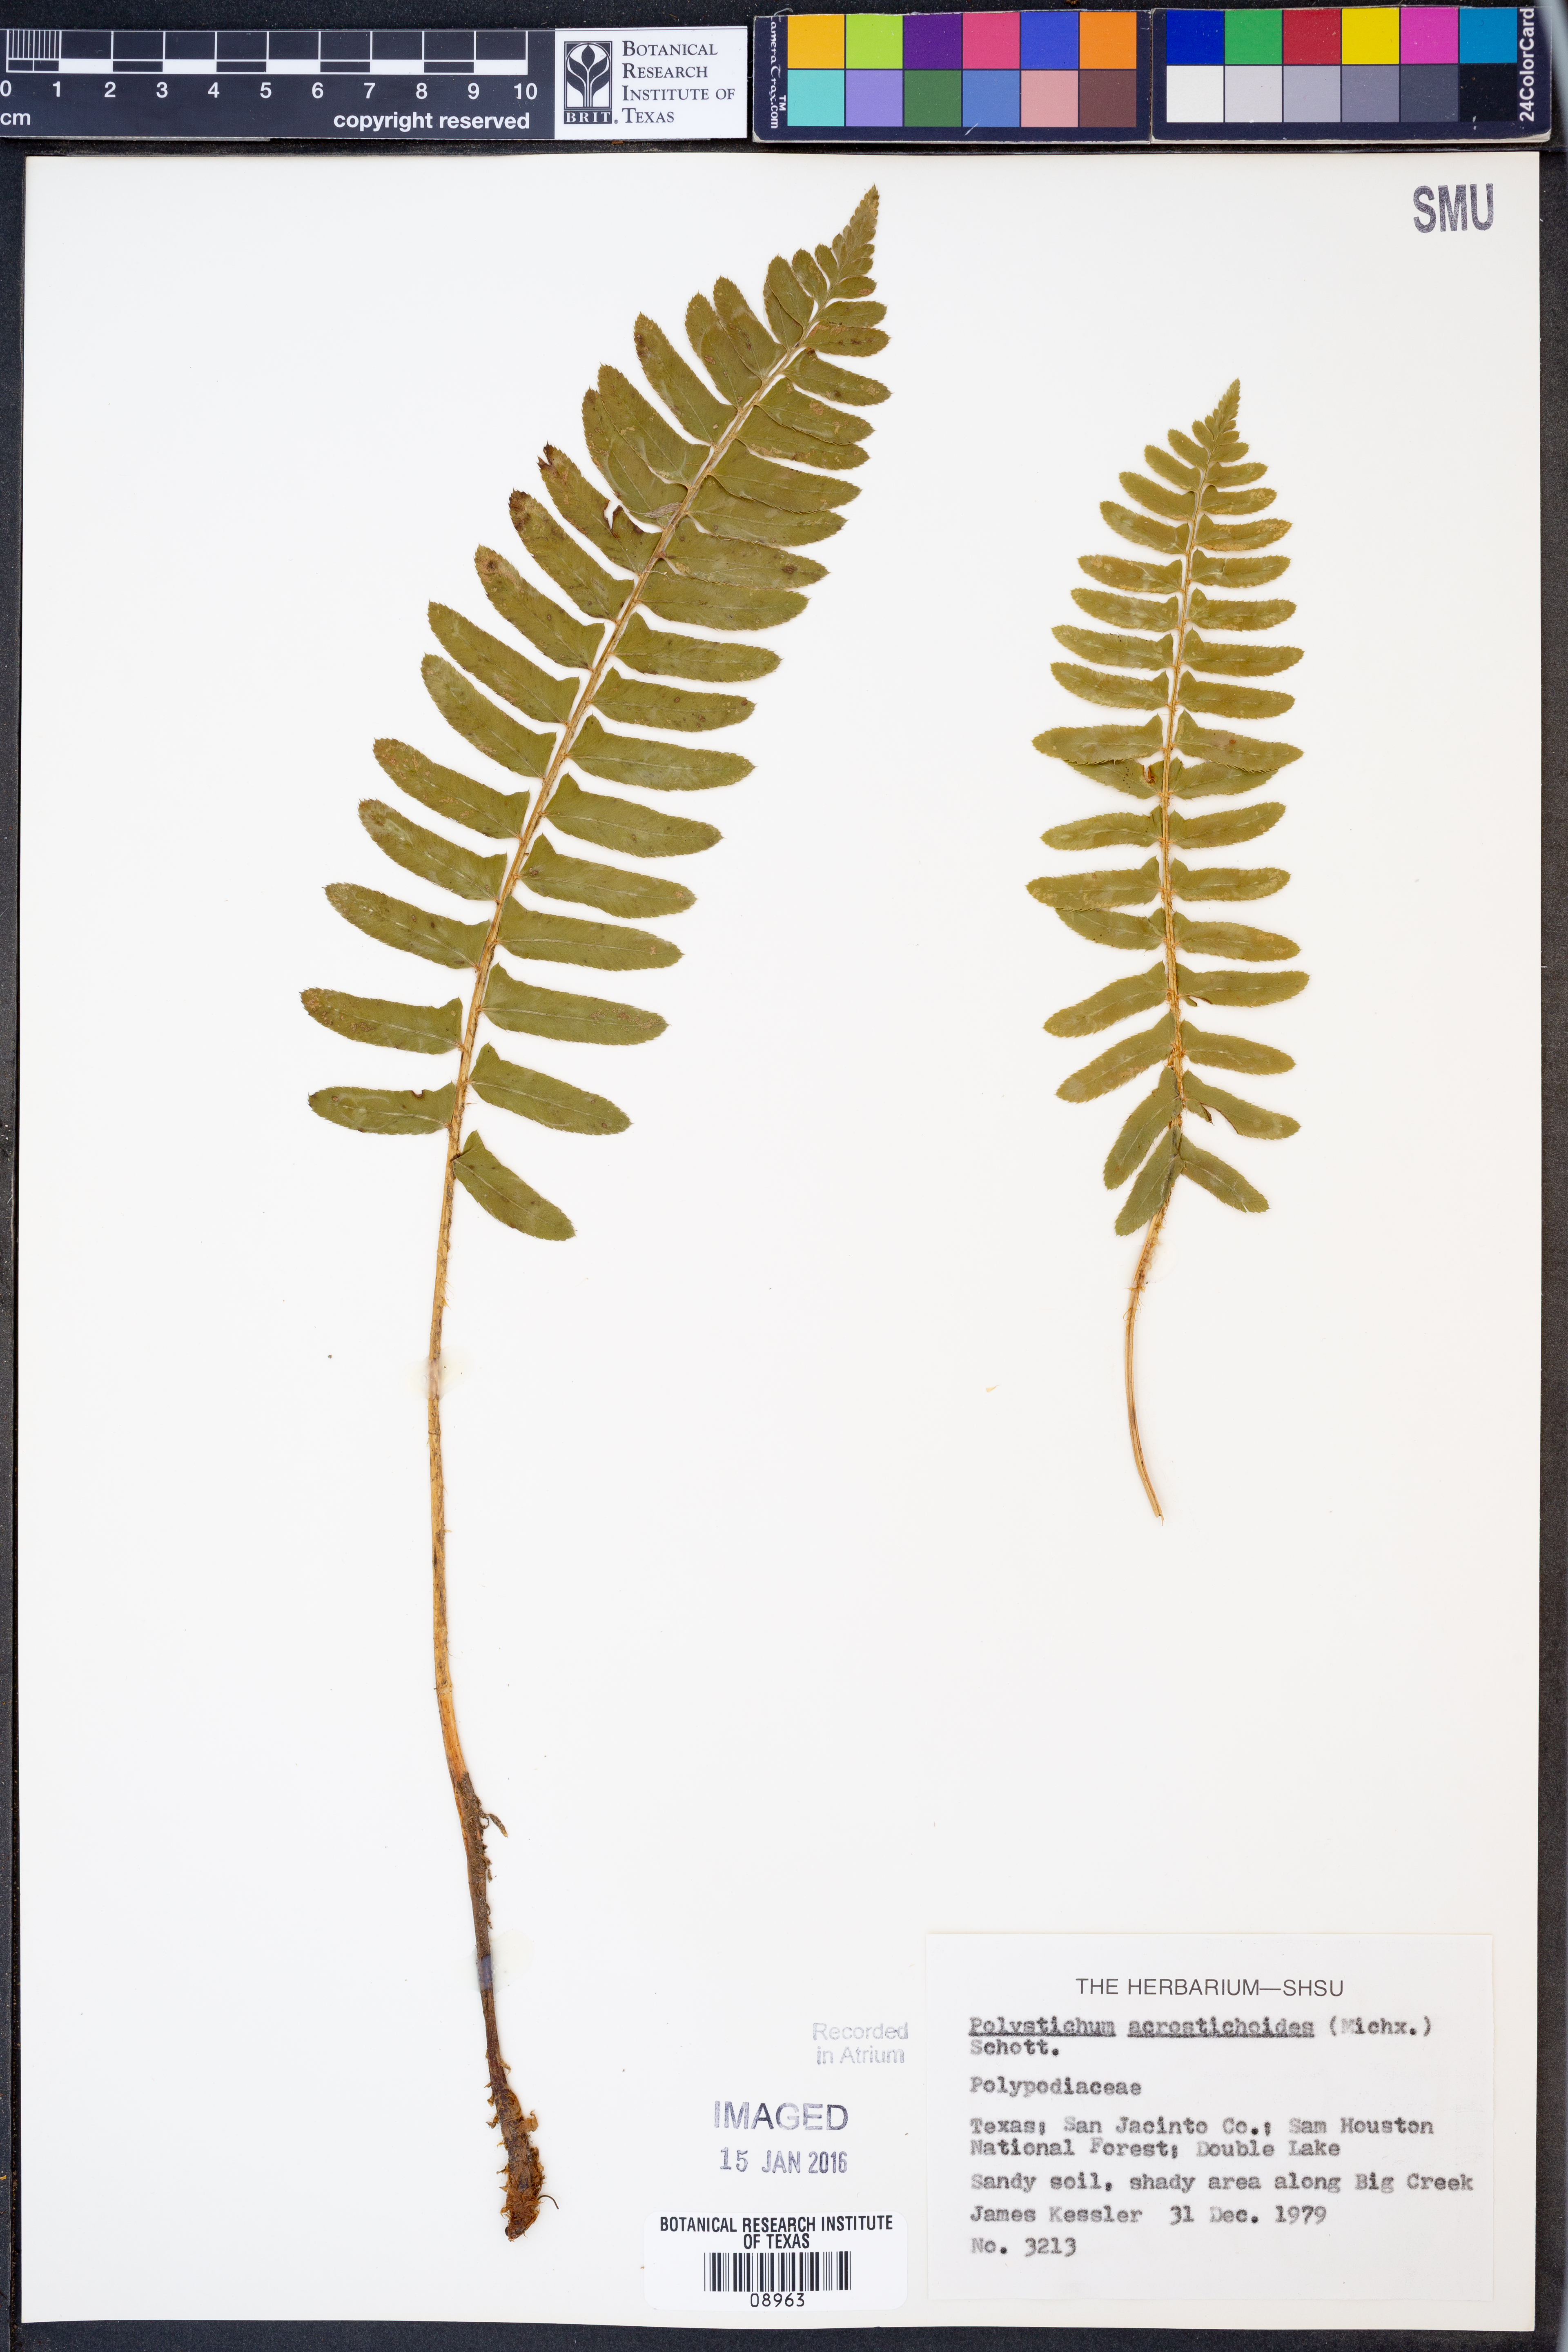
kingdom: Plantae
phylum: Tracheophyta
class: Polypodiopsida
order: Polypodiales
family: Dryopteridaceae
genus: Polystichum
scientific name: Polystichum acrostichoides
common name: Christmas fern
